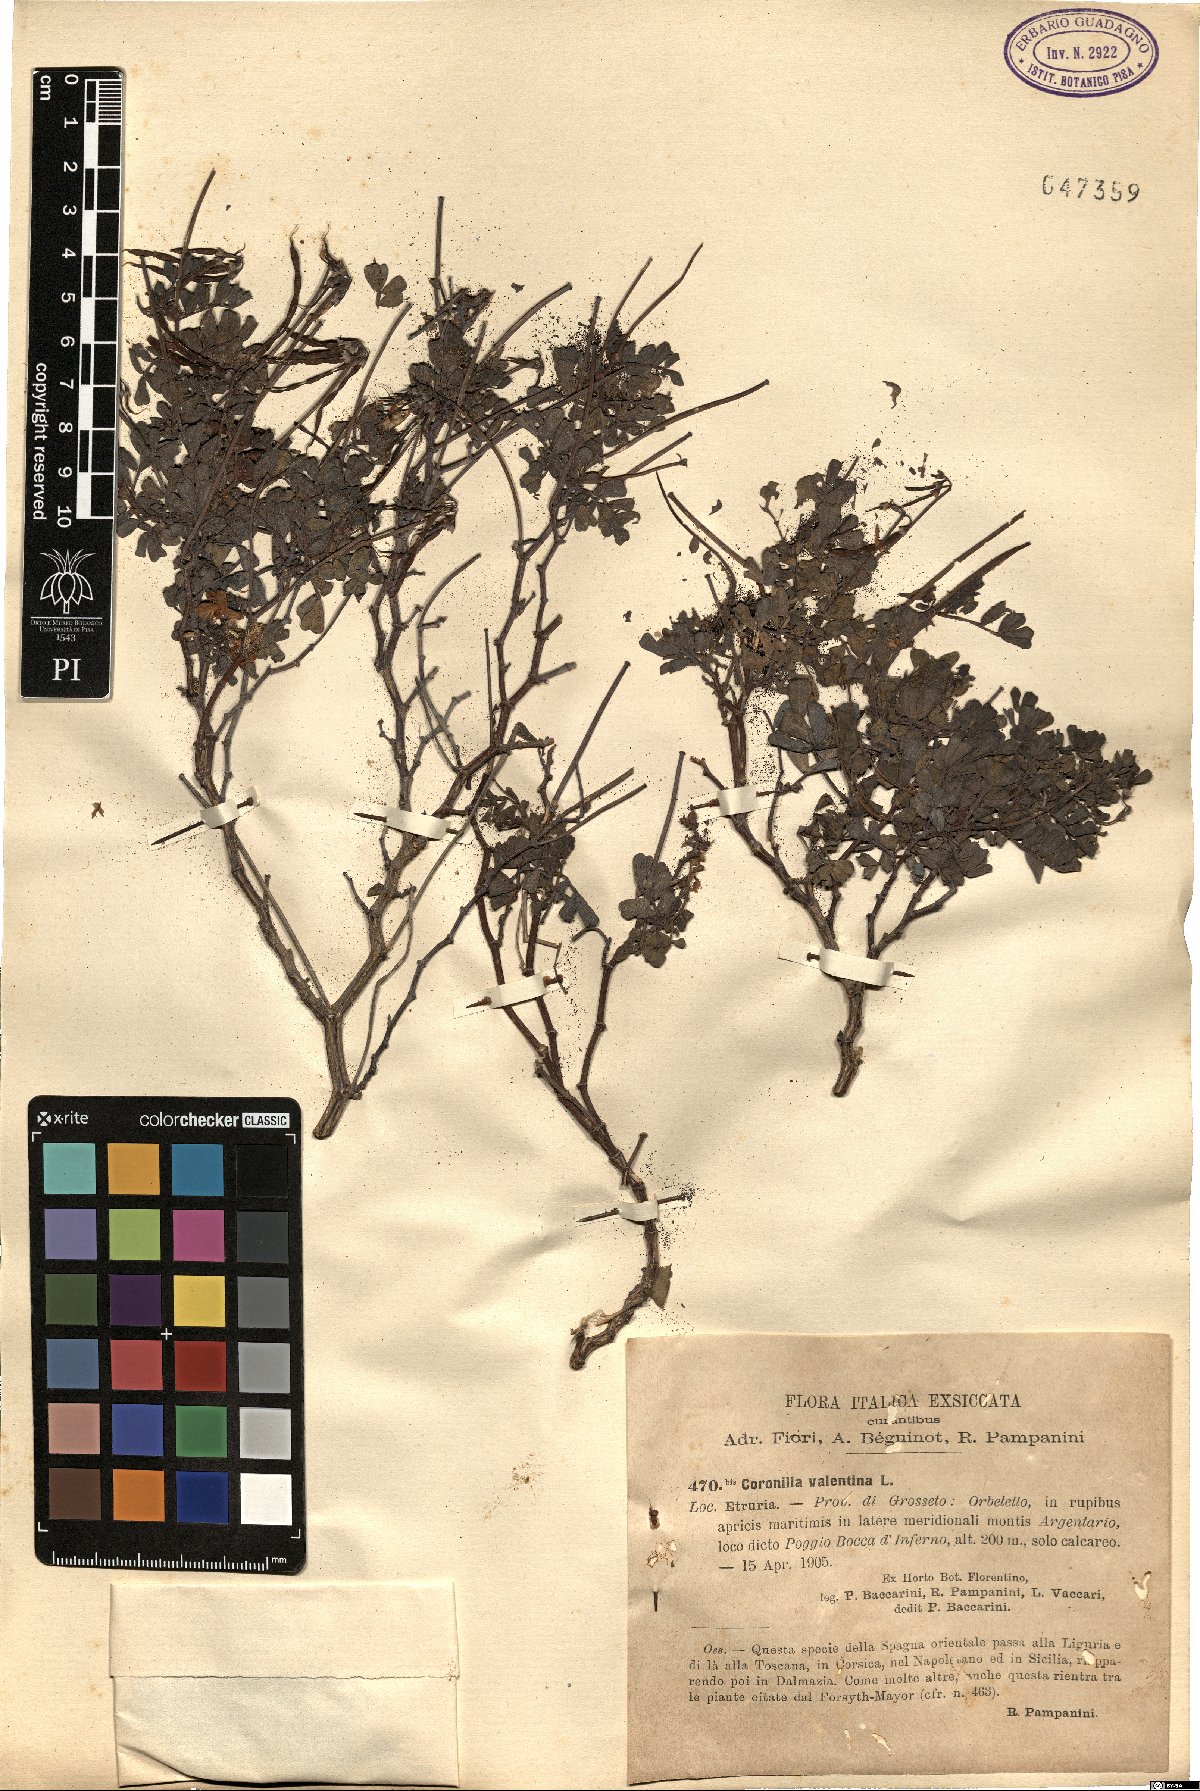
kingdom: Plantae
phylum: Tracheophyta
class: Magnoliopsida
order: Fabales
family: Fabaceae
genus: Coronilla
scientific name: Coronilla valentina
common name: Shrubby scorpion-vetch
